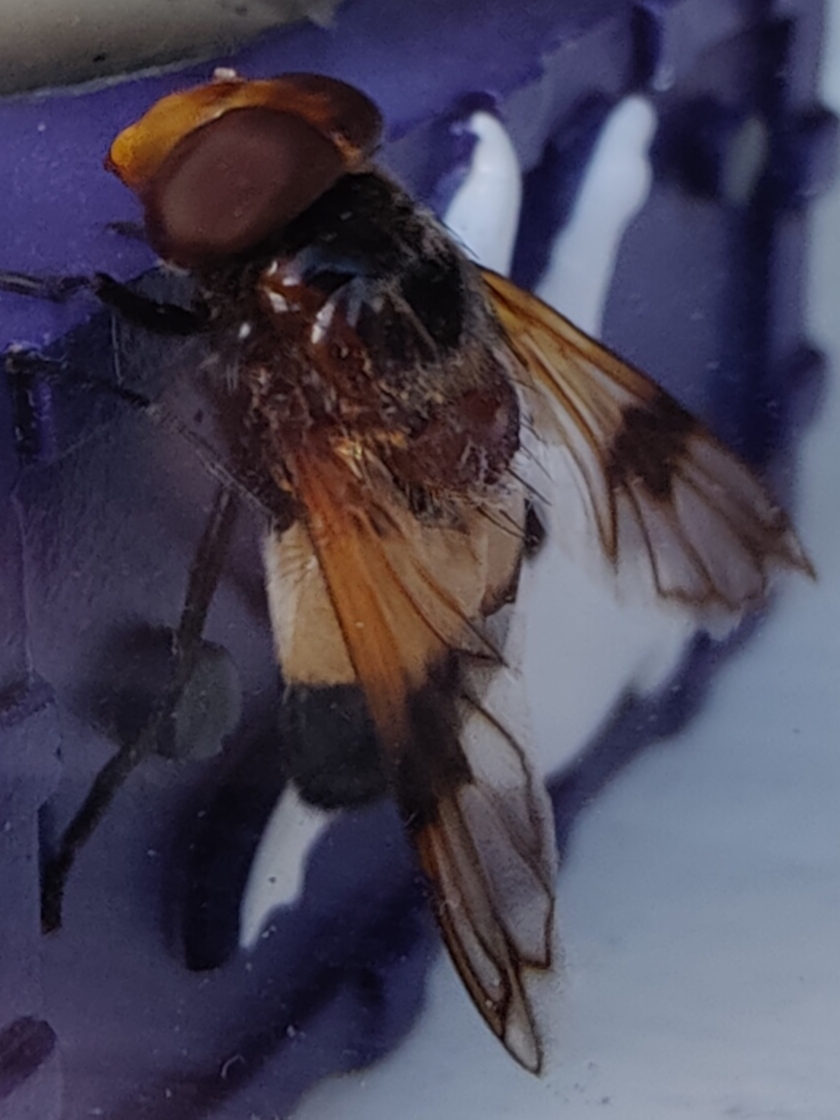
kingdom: Animalia
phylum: Arthropoda
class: Insecta
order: Diptera
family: Syrphidae
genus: Volucella
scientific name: Volucella pellucens
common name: Hvidbåndet humlesvirreflue
